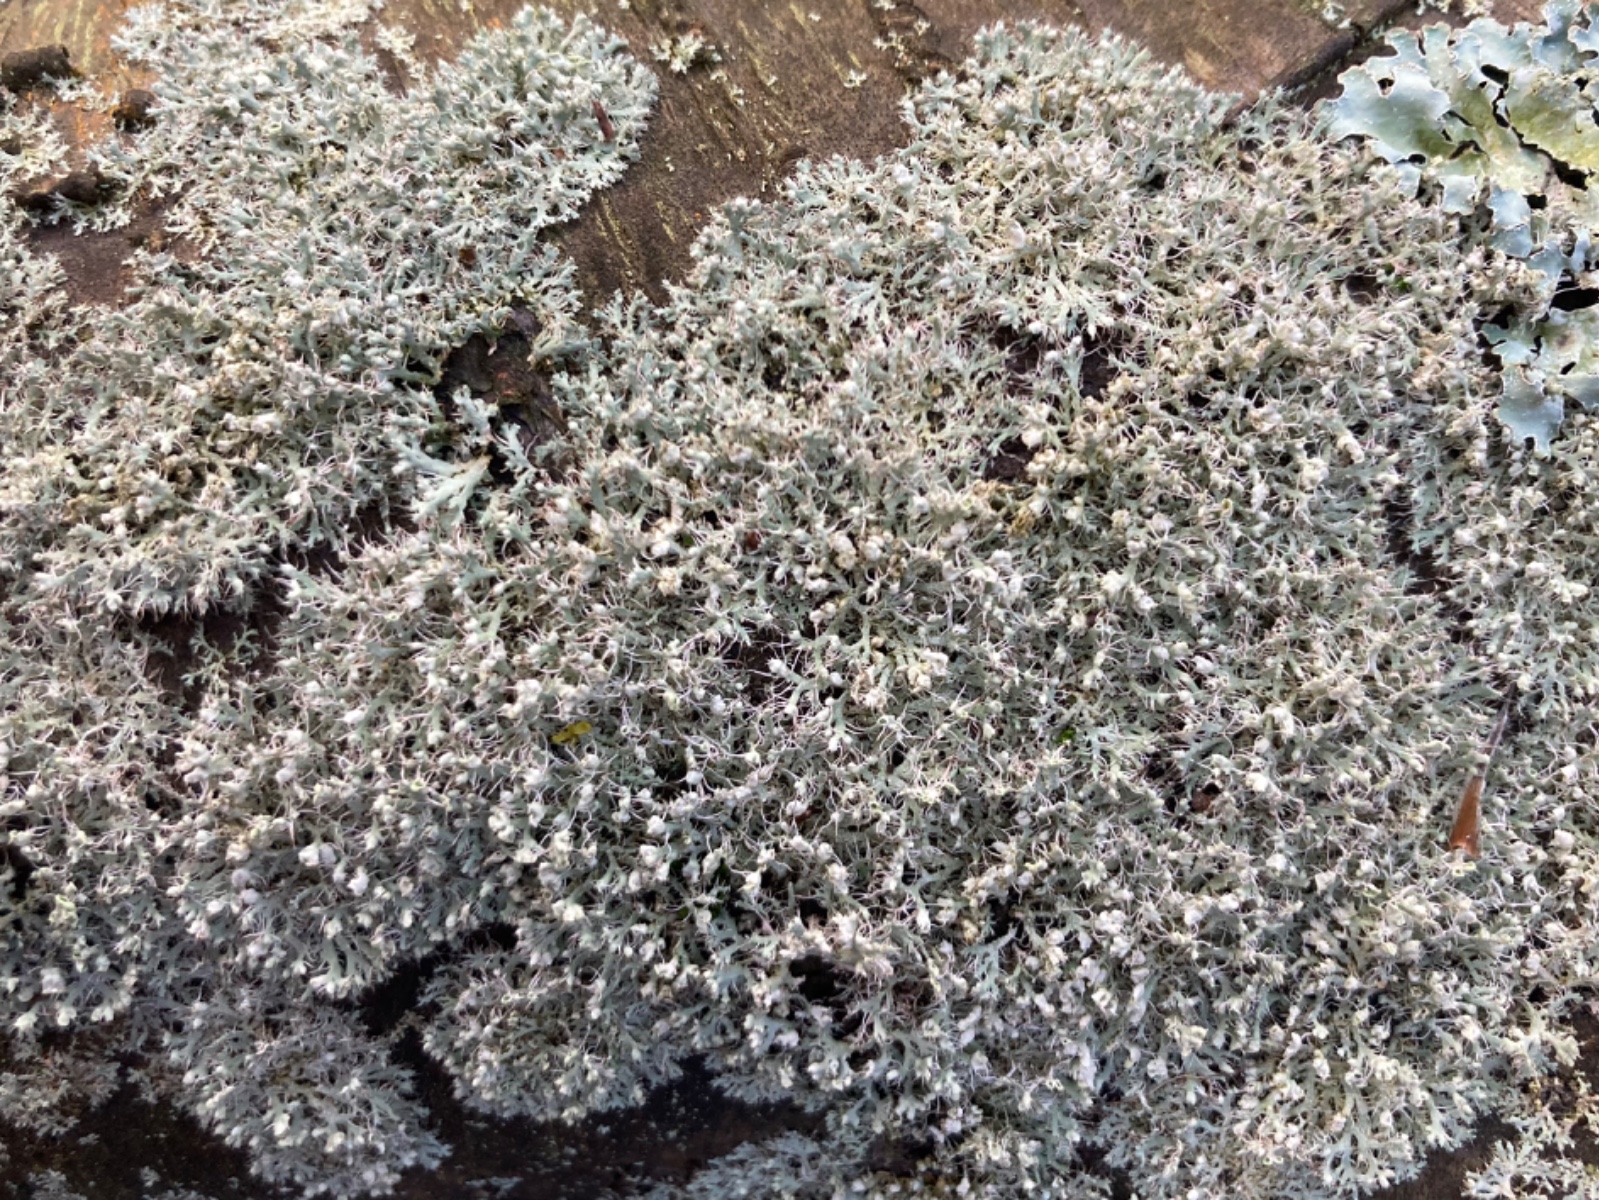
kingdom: Fungi
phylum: Ascomycota
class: Lecanoromycetes
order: Caliciales
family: Physciaceae
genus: Physcia
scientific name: Physcia adscendens
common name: hætte-rosetlav
